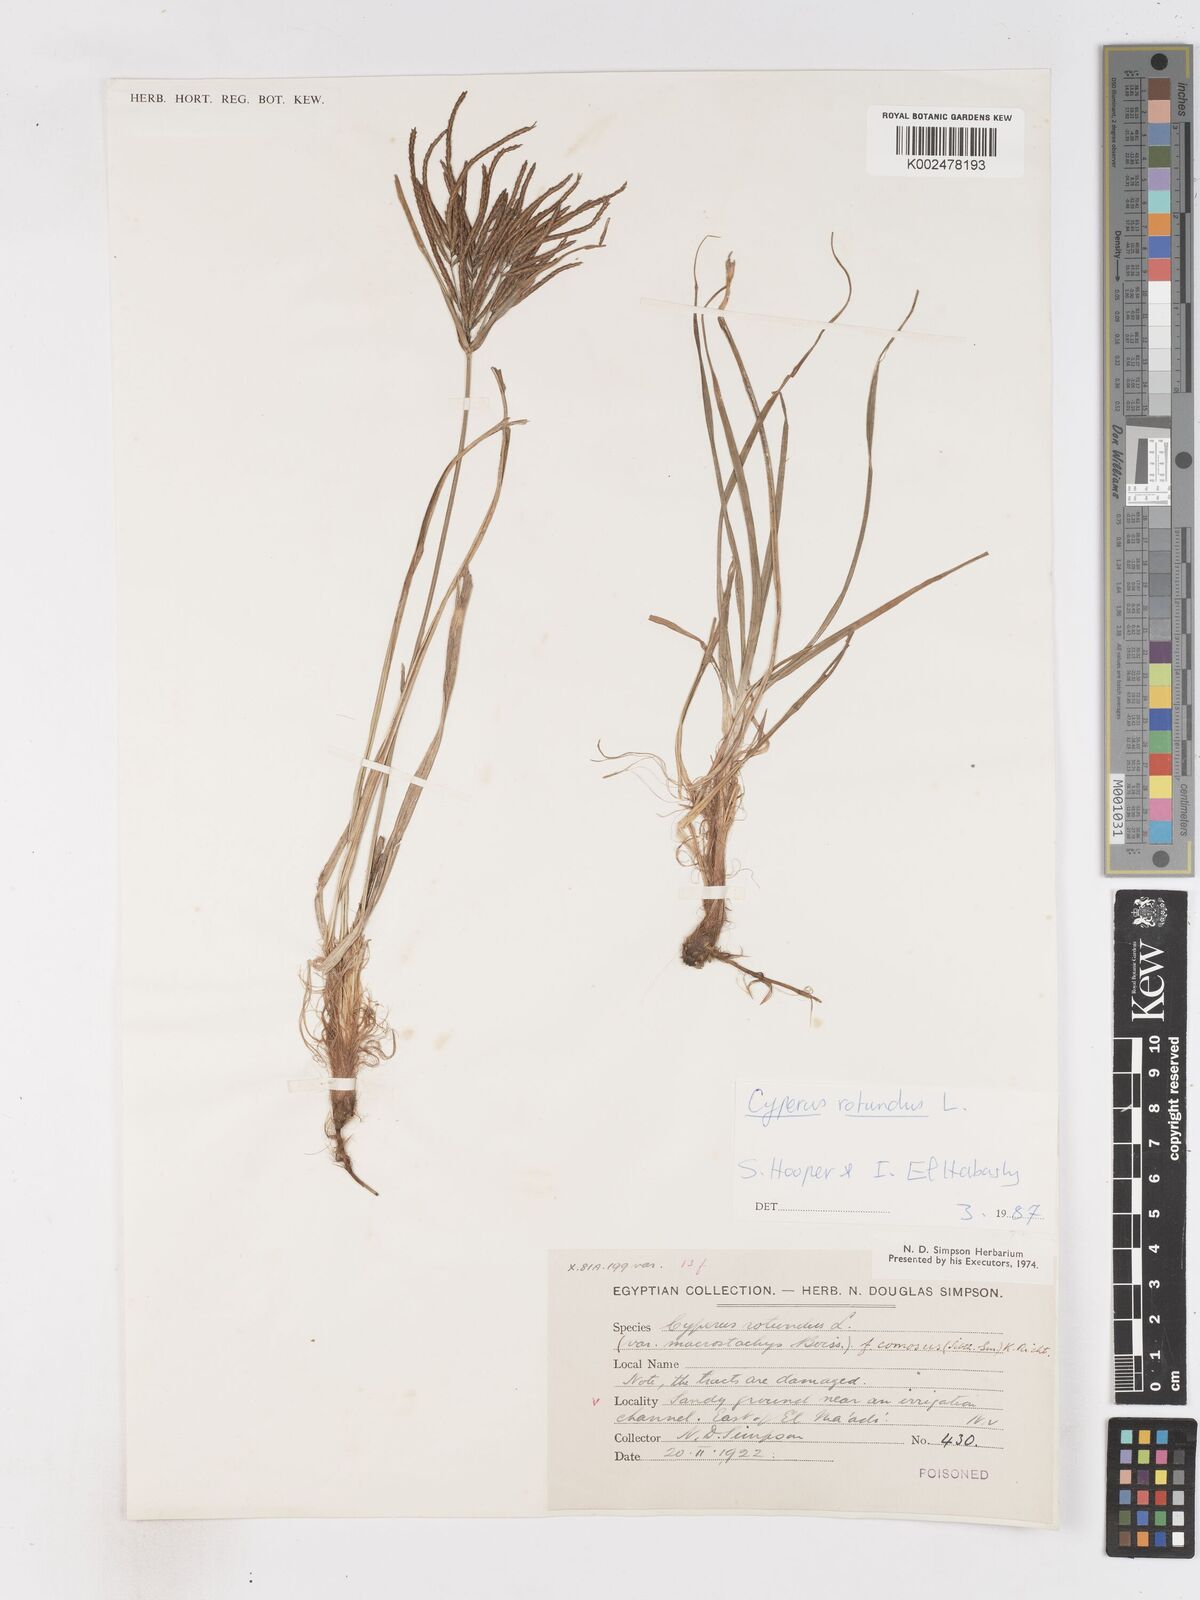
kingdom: Plantae
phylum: Tracheophyta
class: Liliopsida
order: Poales
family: Cyperaceae
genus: Cyperus
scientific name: Cyperus rotundus
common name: Nutgrass
